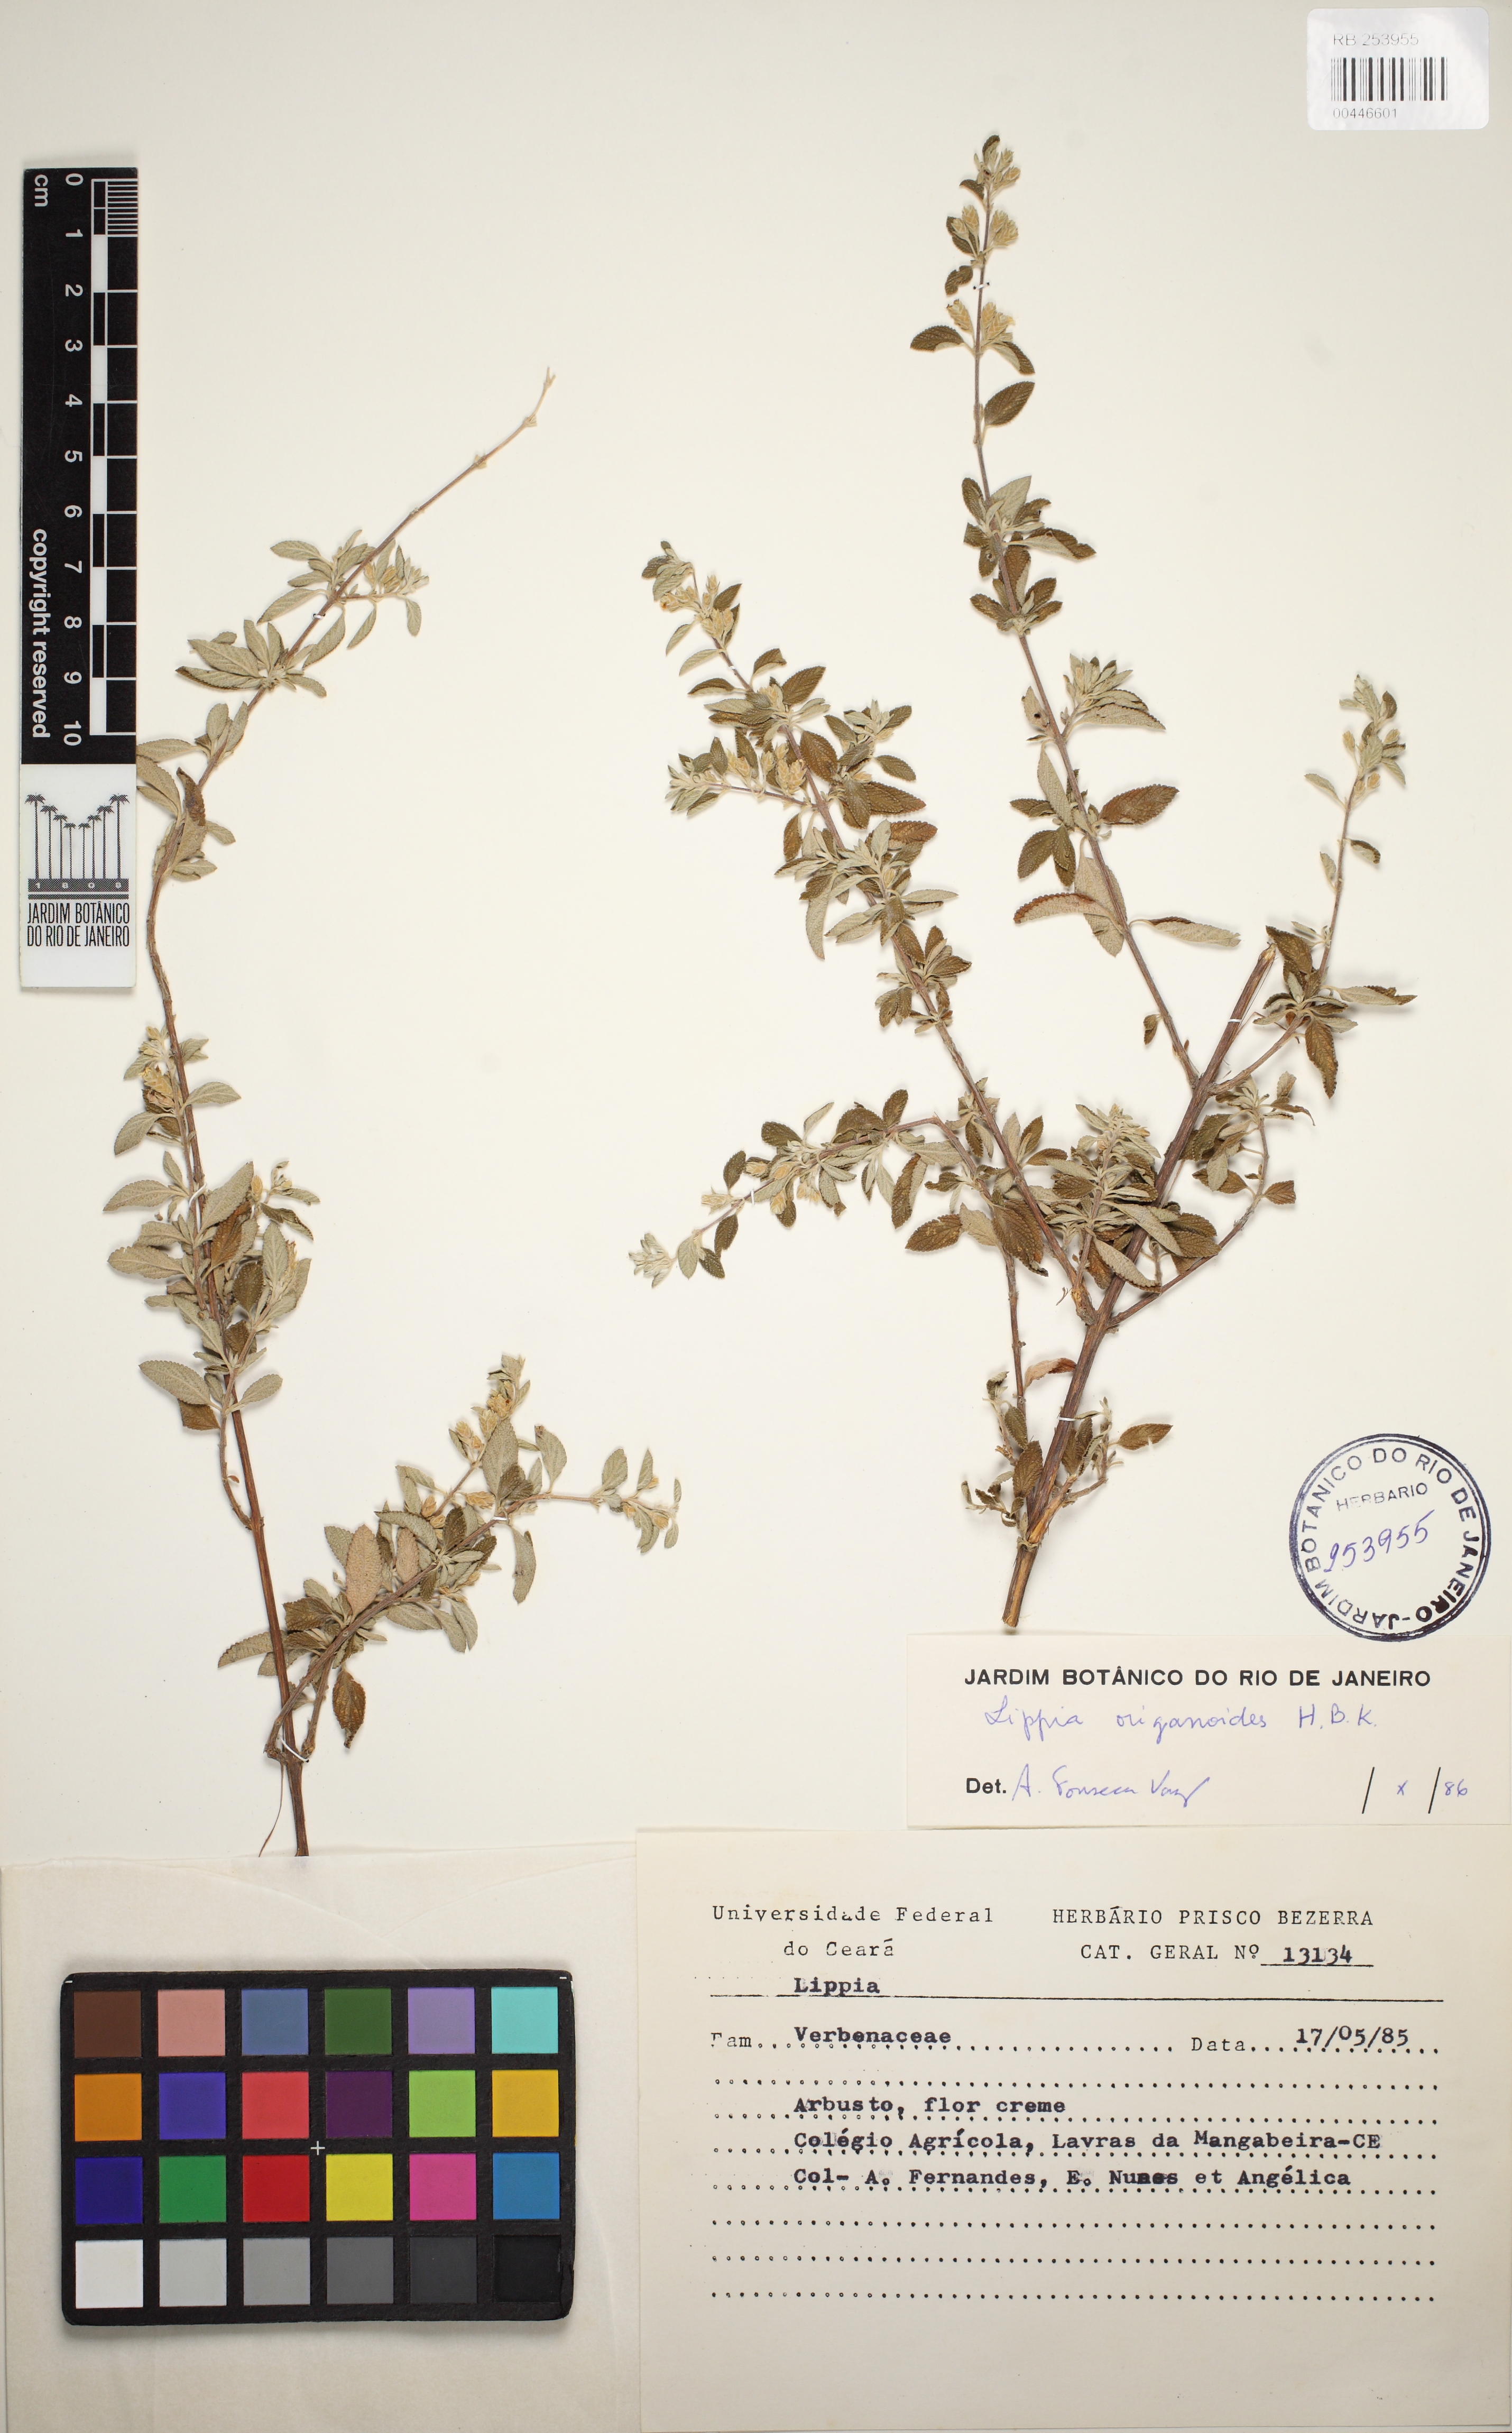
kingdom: Plantae
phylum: Tracheophyta
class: Magnoliopsida
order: Lamiales
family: Verbenaceae
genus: Lippia
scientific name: Lippia origanoides
